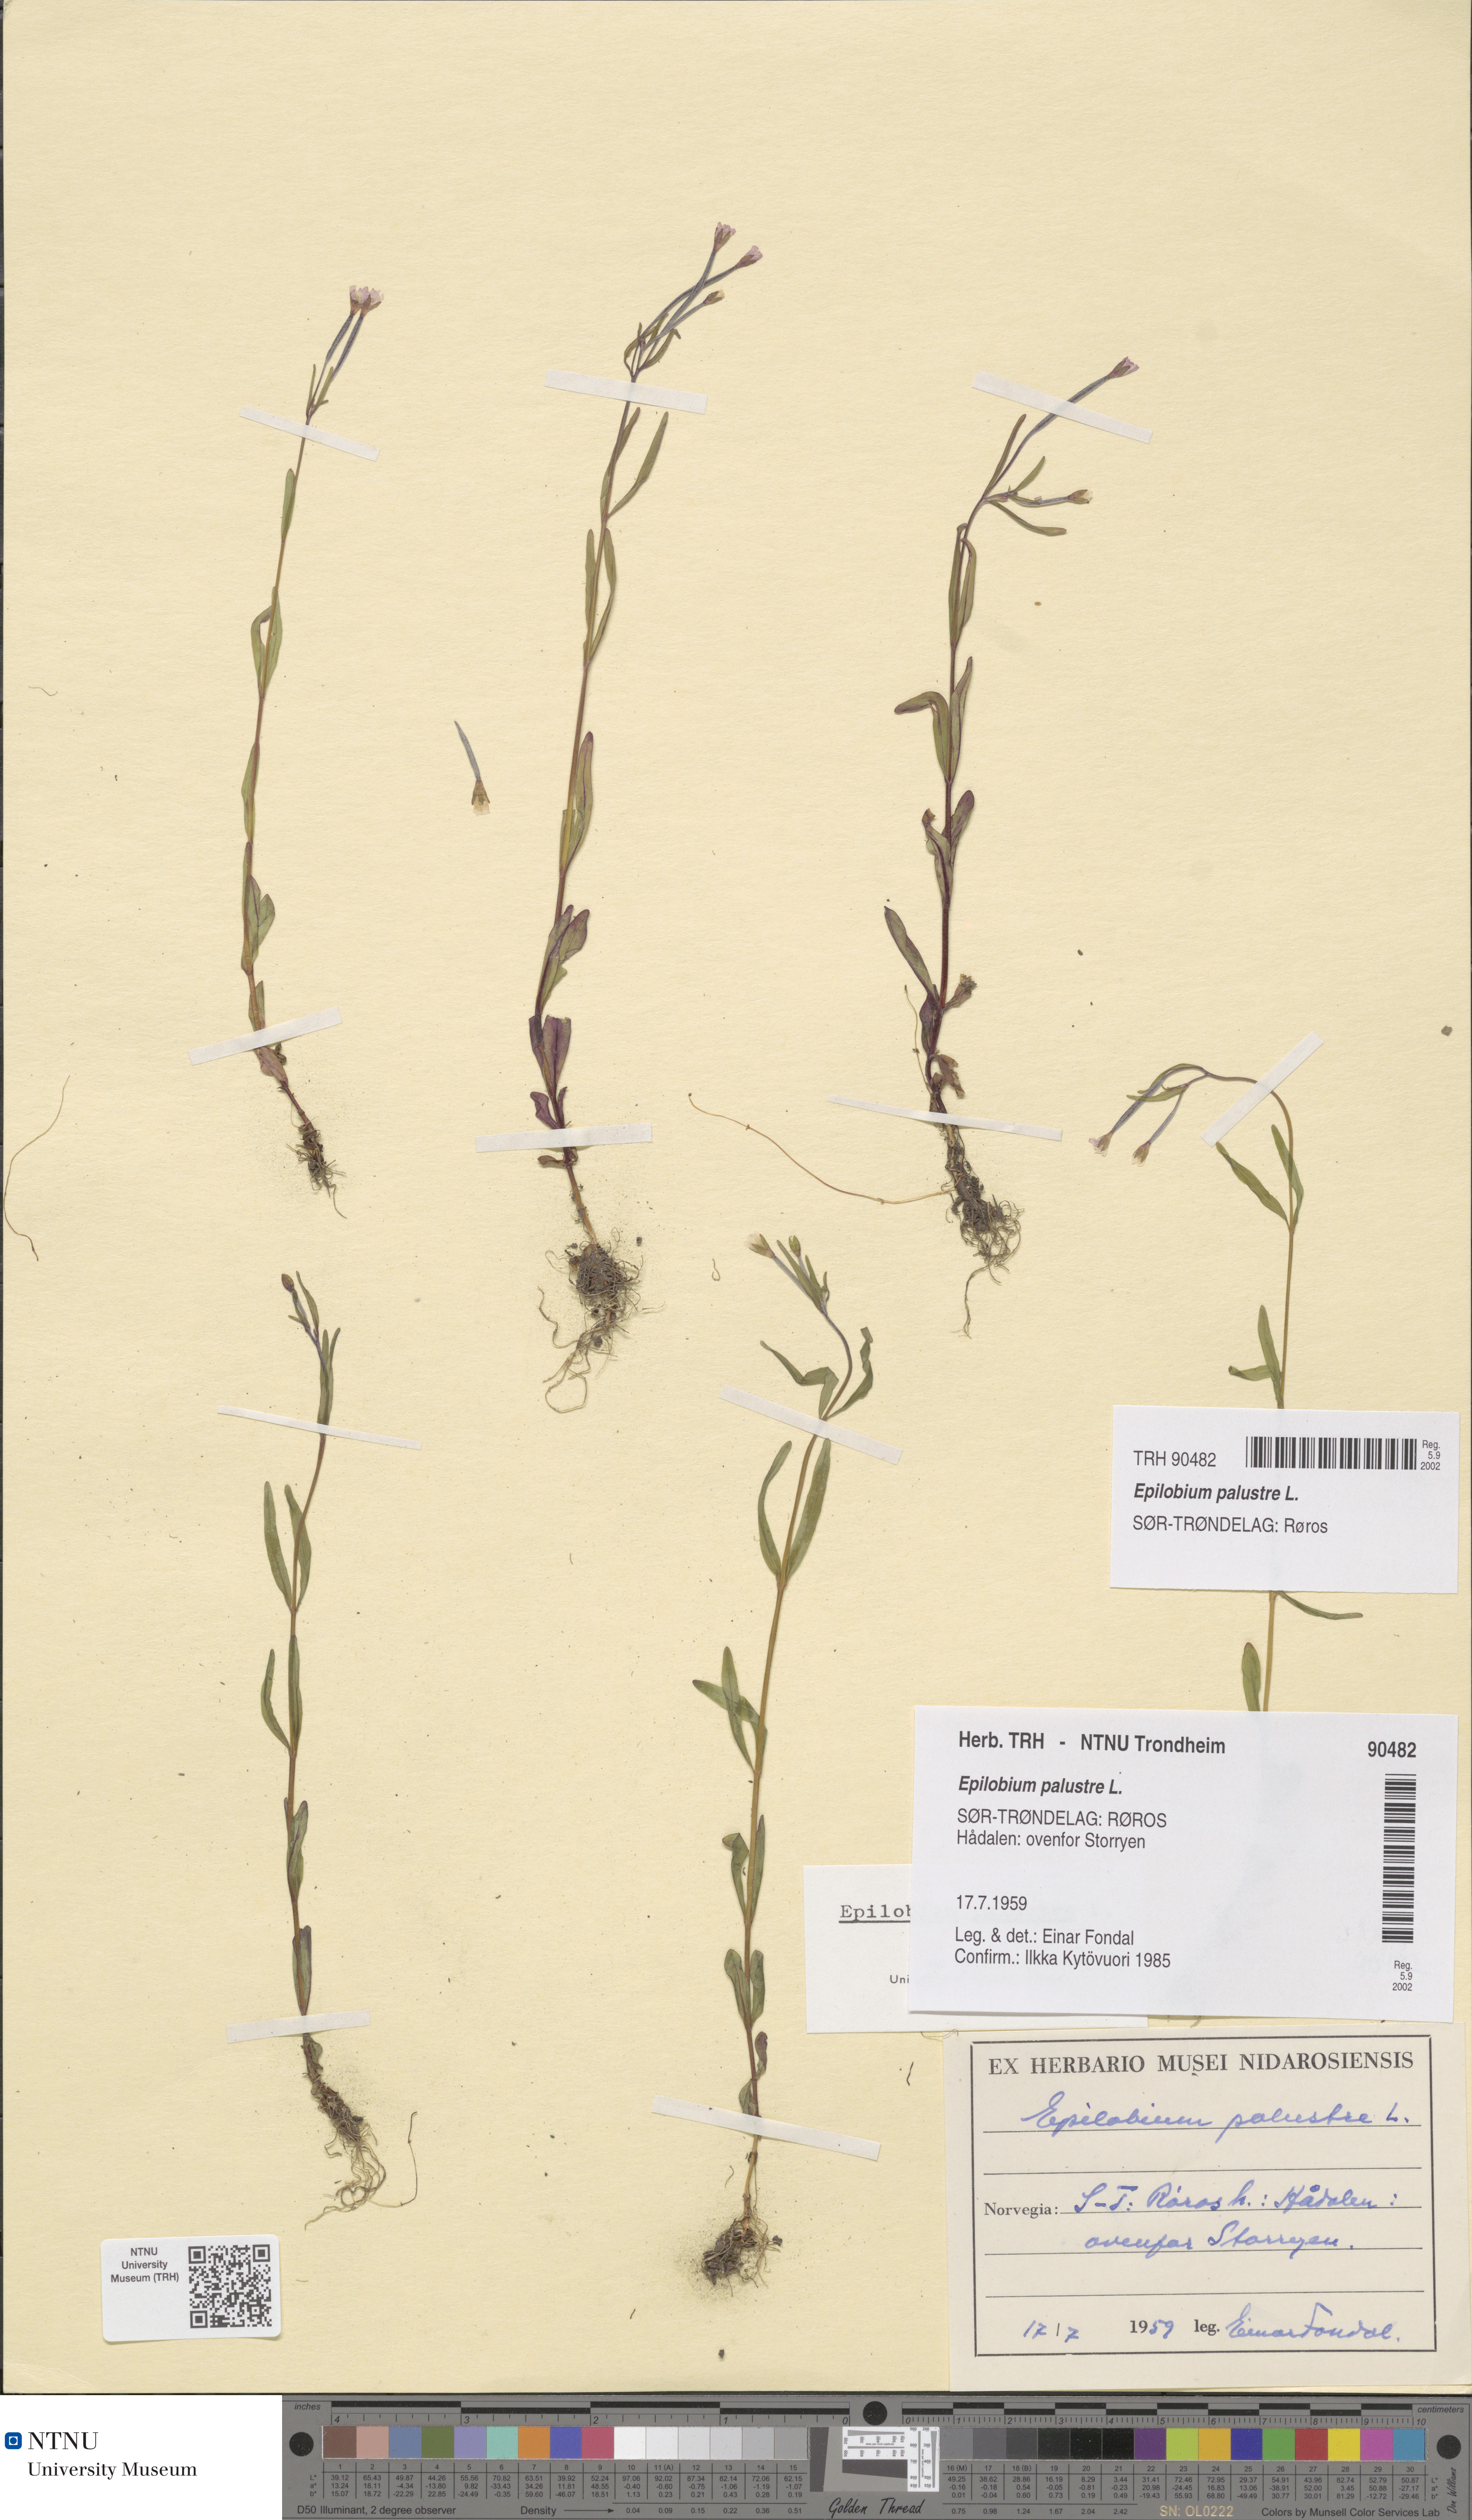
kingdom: Plantae
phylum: Tracheophyta
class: Magnoliopsida
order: Myrtales
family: Onagraceae
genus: Epilobium
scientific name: Epilobium palustre
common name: Marsh willowherb
